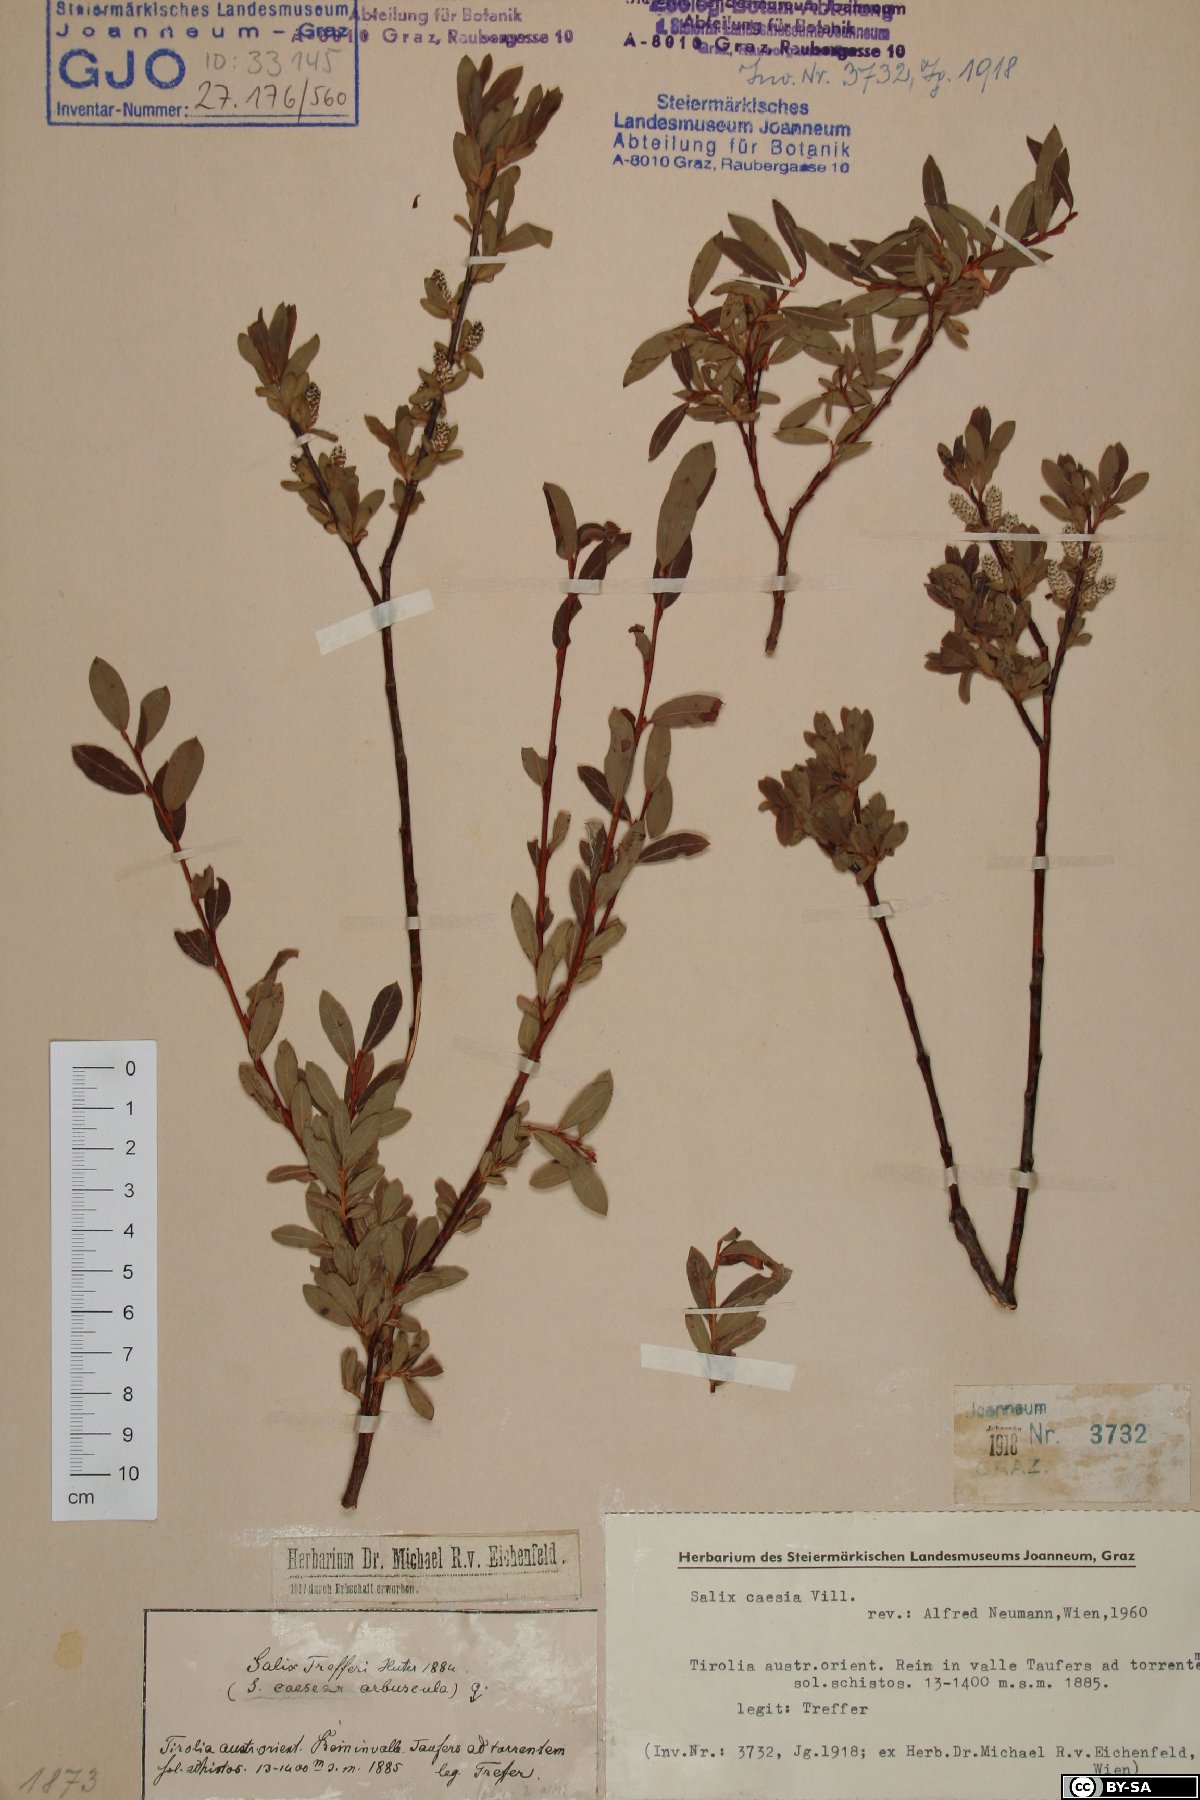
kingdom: Plantae
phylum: Tracheophyta
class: Magnoliopsida
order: Malpighiales
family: Salicaceae
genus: Salix
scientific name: Salix caesia
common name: Blue willow
